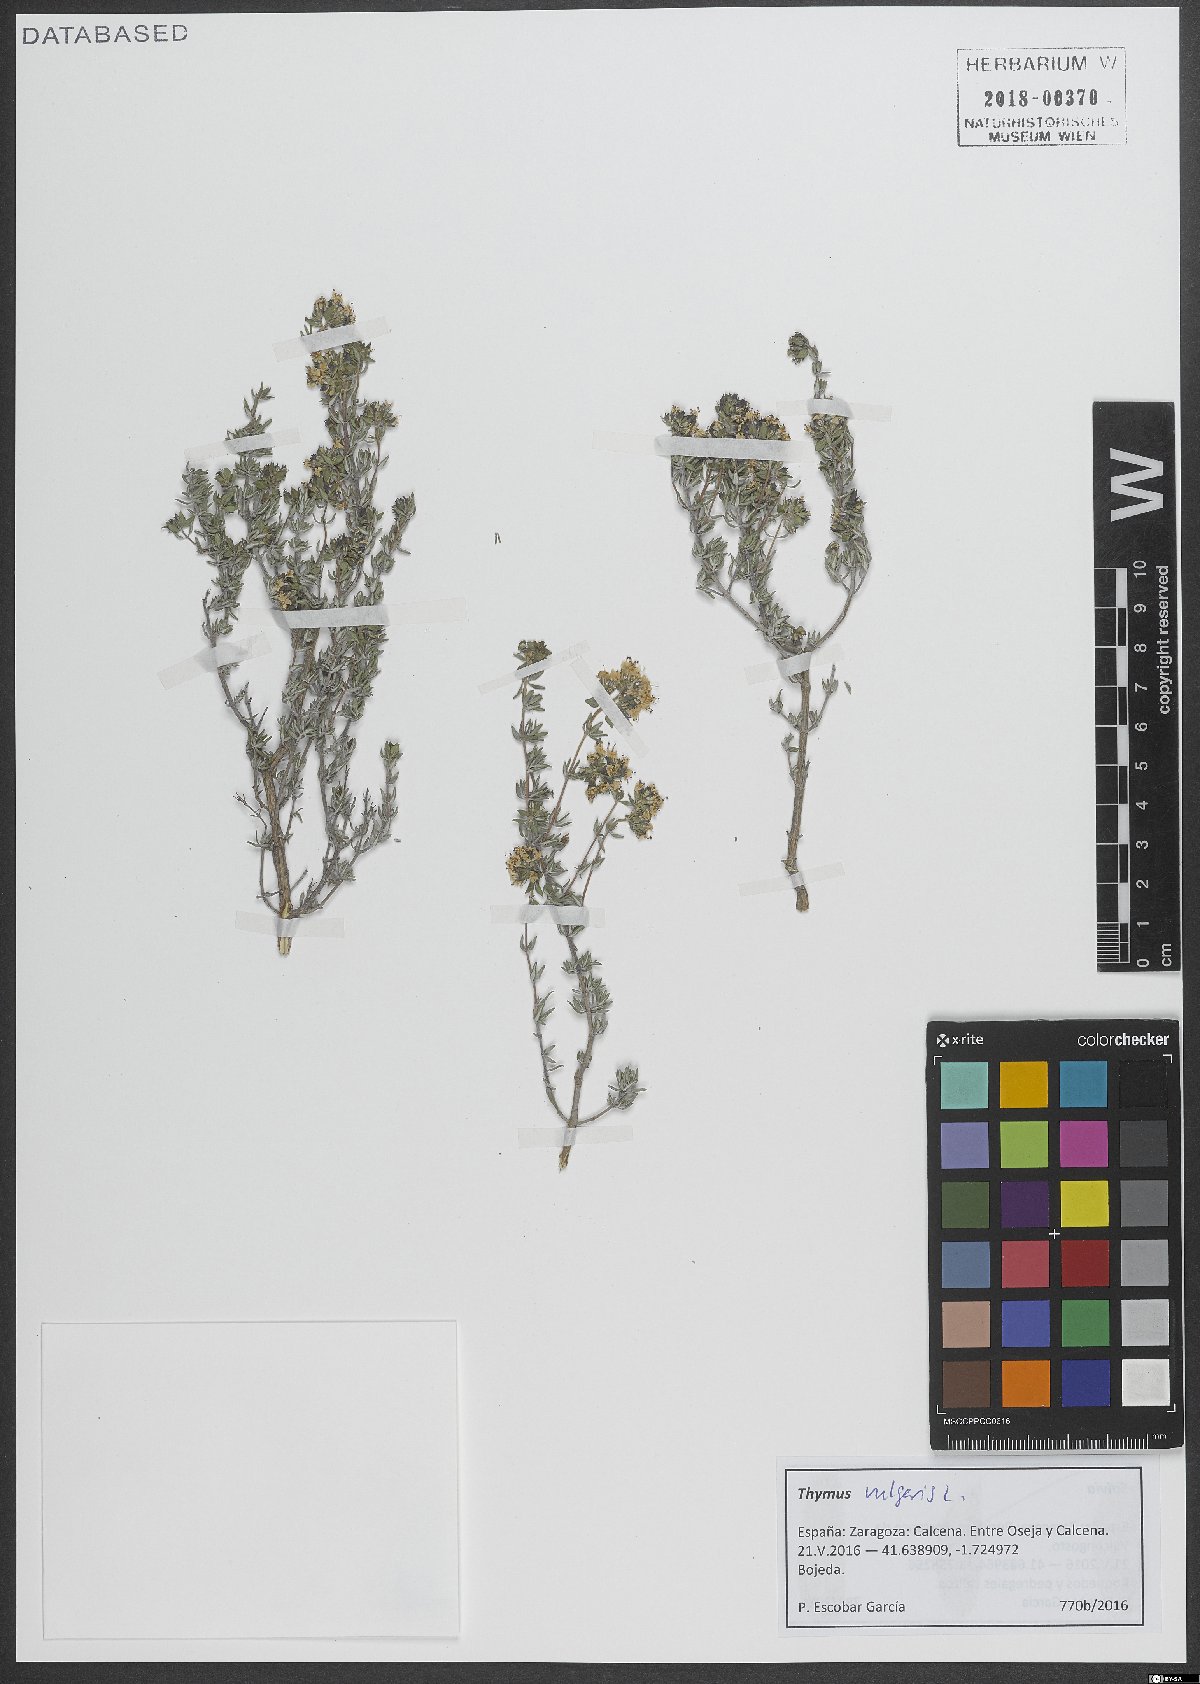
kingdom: Plantae
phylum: Tracheophyta
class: Magnoliopsida
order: Lamiales
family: Lamiaceae
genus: Thymus
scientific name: Thymus vulgaris
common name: Garden thyme
